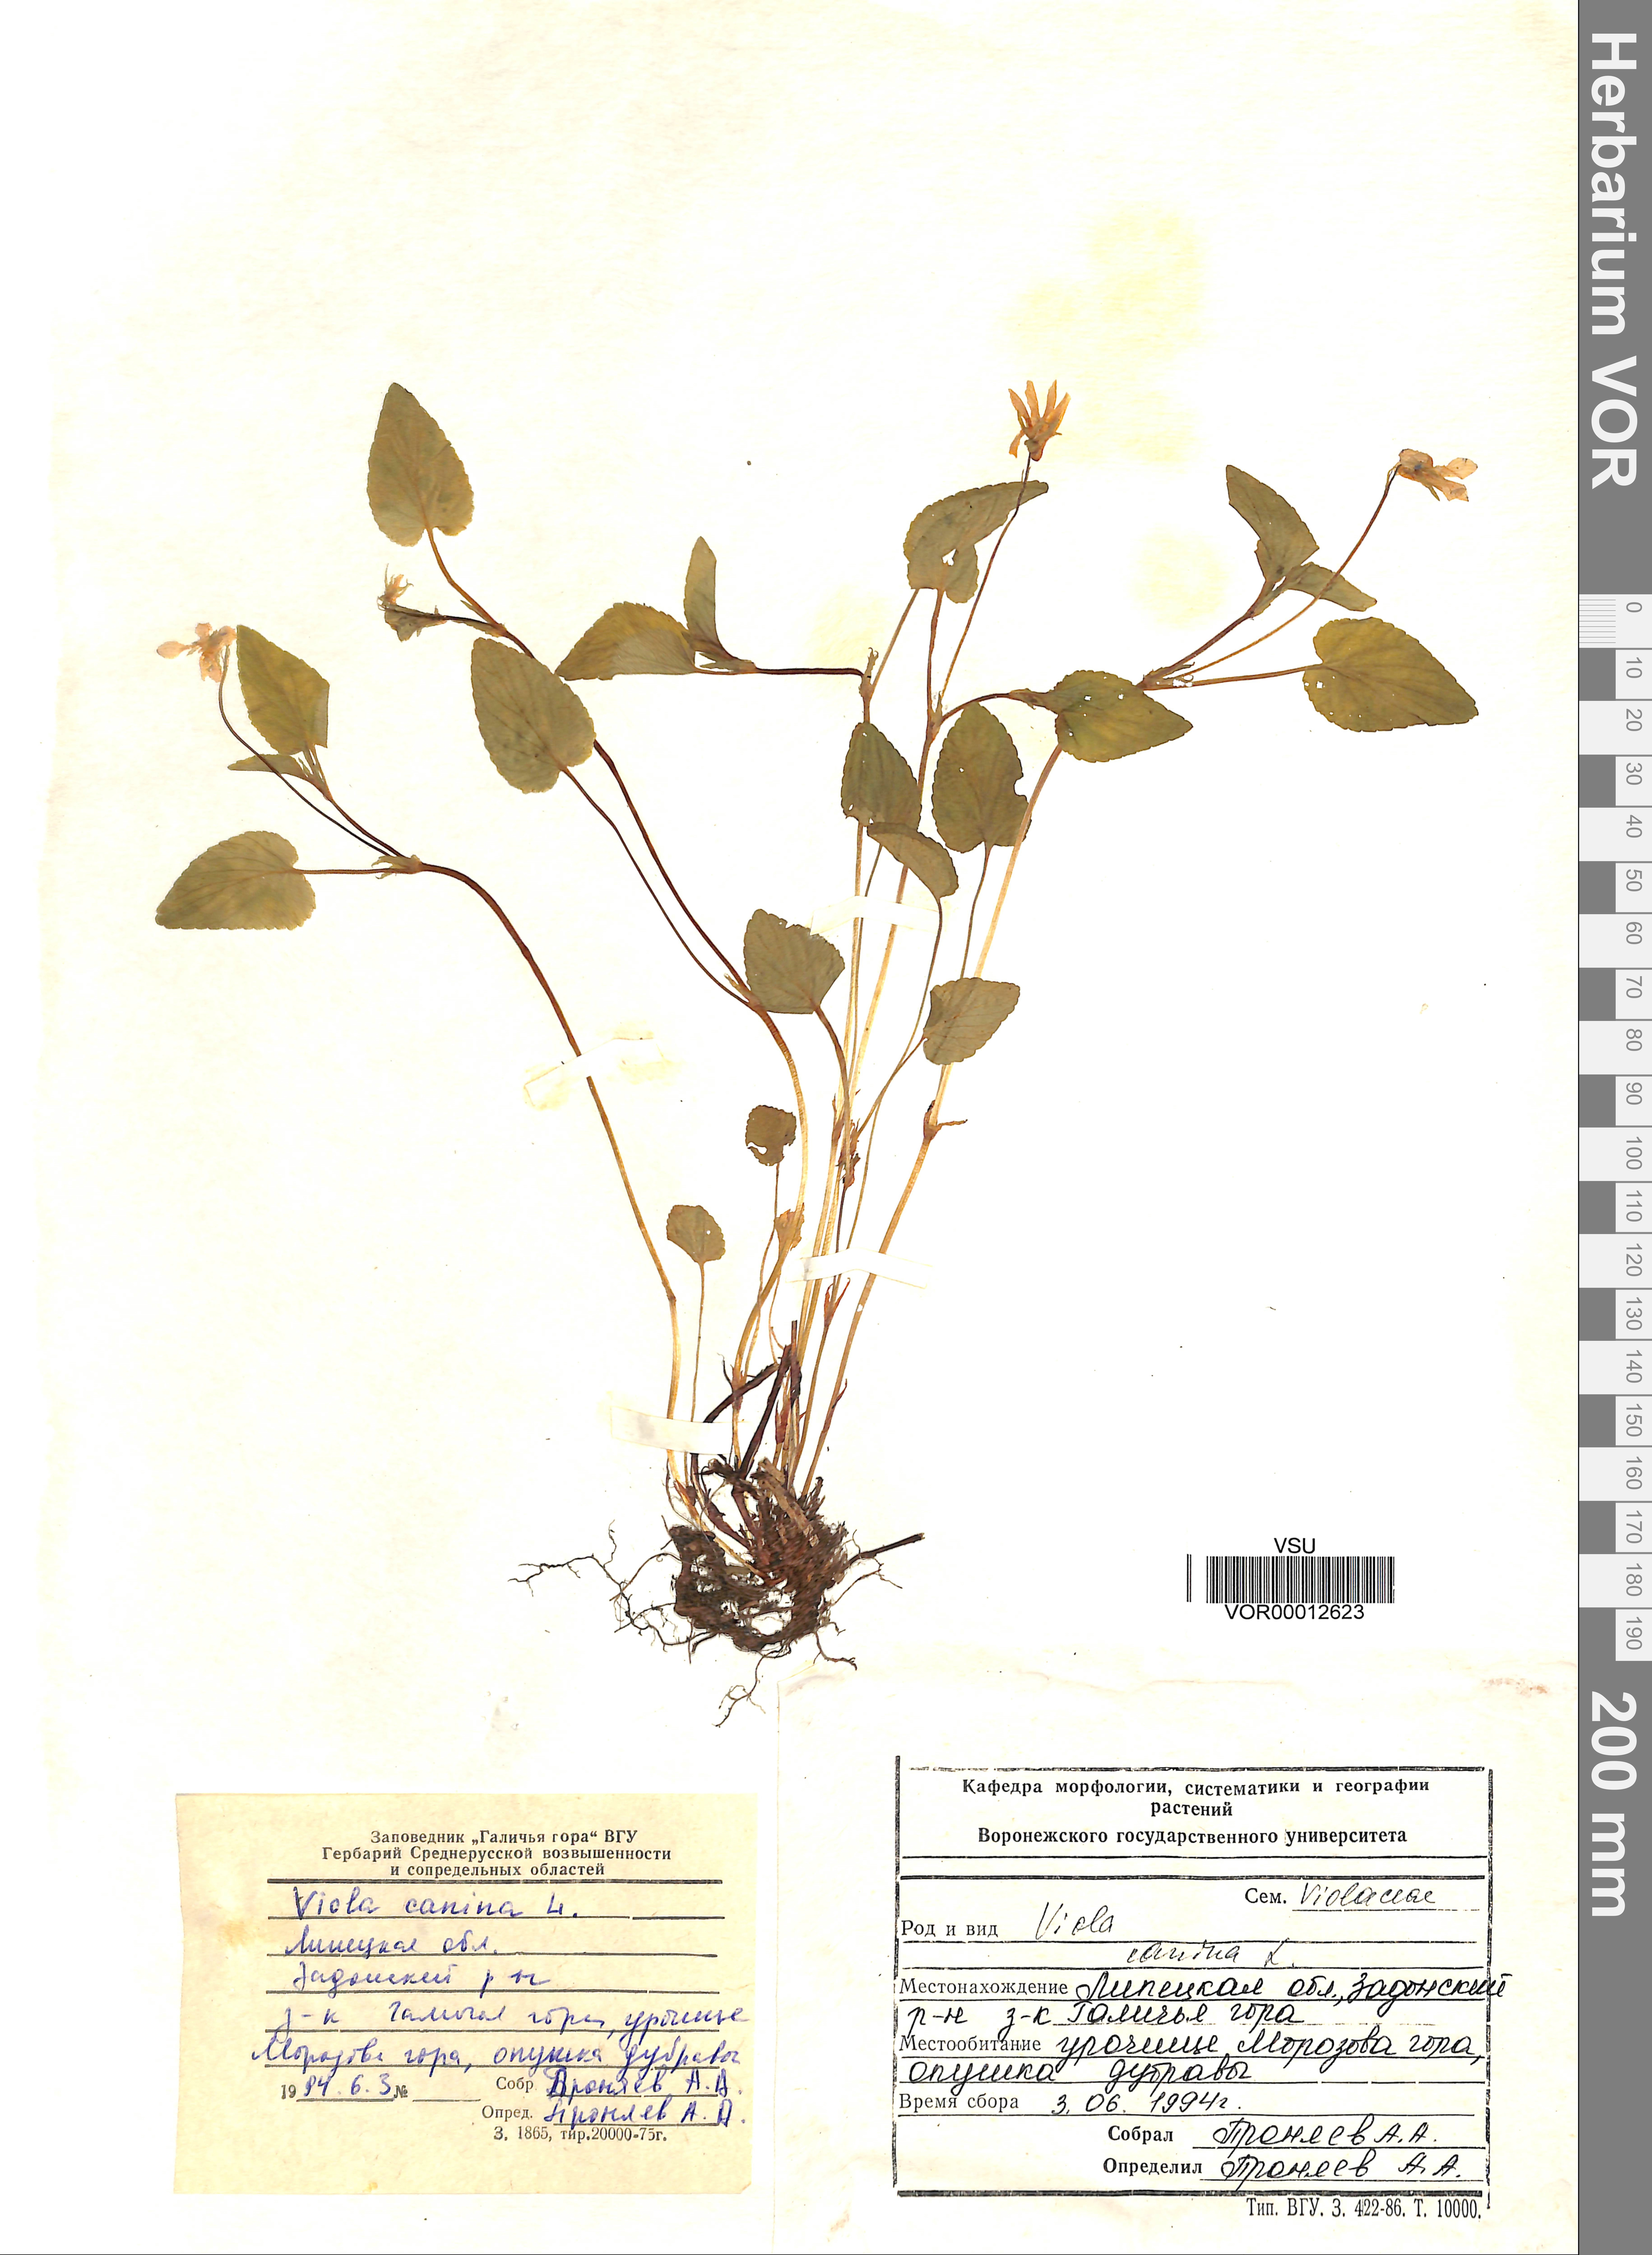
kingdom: Plantae
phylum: Tracheophyta
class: Magnoliopsida
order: Malpighiales
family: Violaceae
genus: Viola
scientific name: Viola canina
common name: Heath dog-violet
